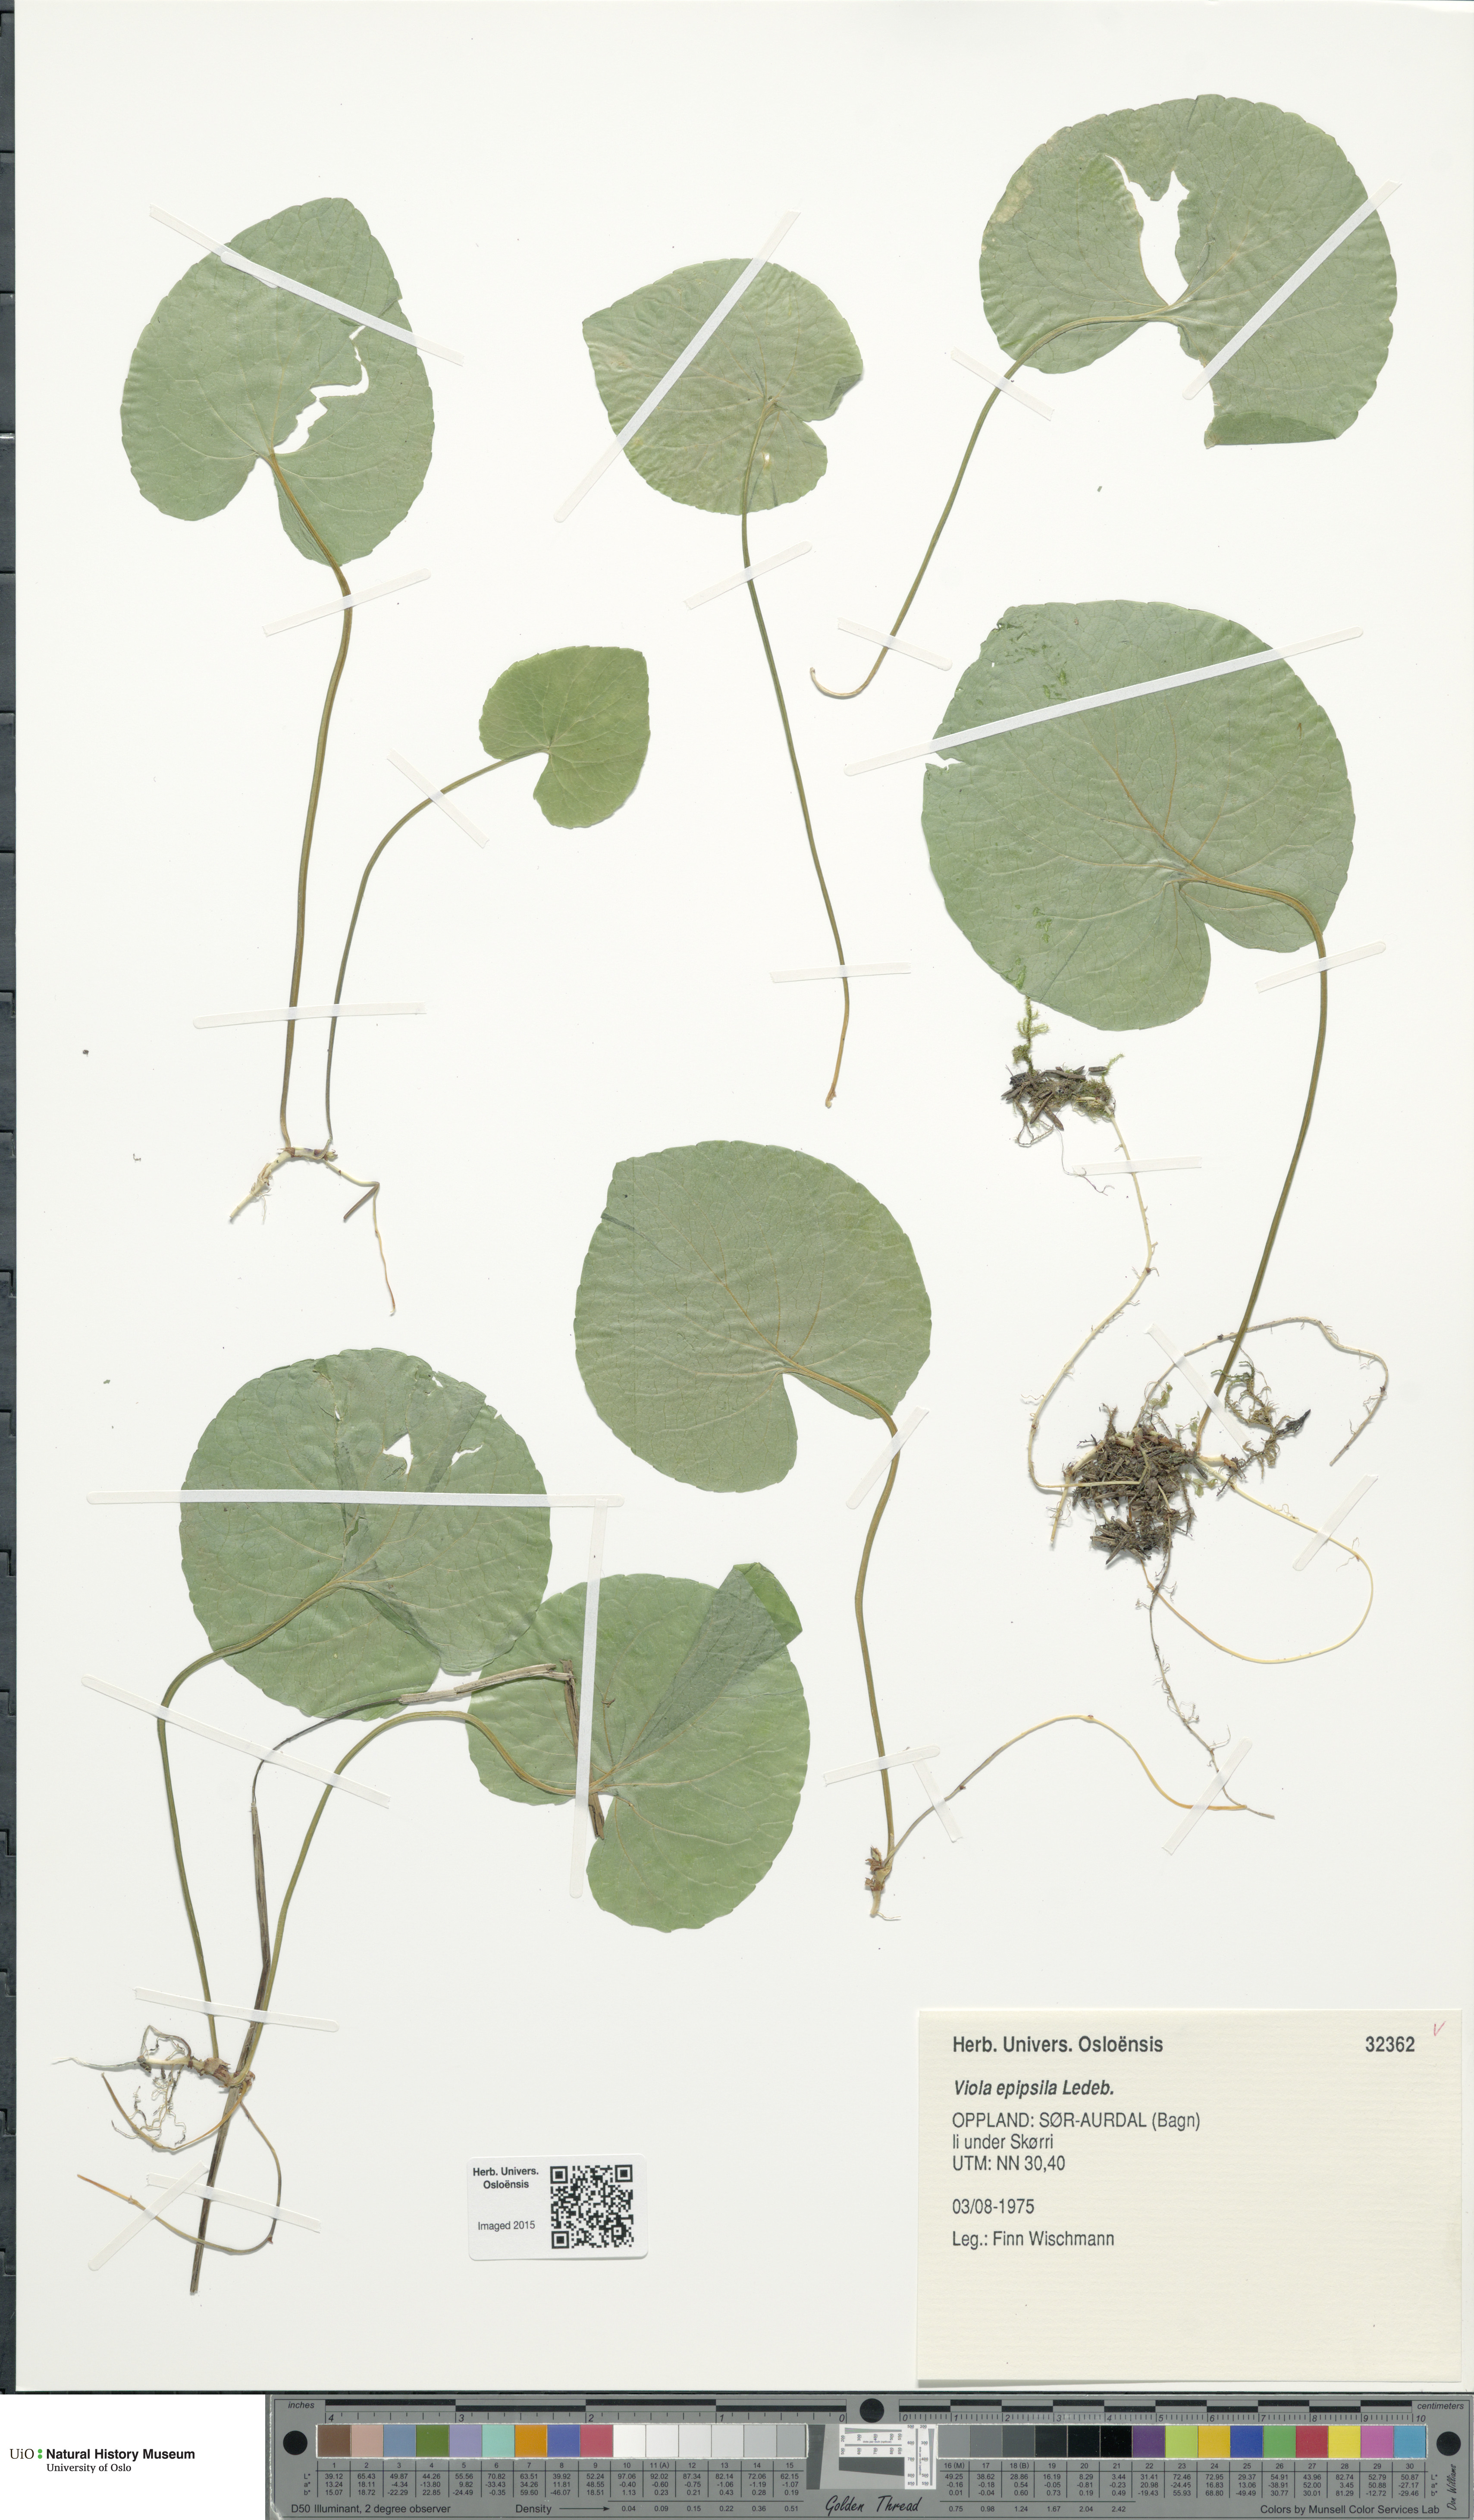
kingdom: Plantae
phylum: Tracheophyta
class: Magnoliopsida
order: Malpighiales
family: Violaceae
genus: Viola
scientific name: Viola epipsila
